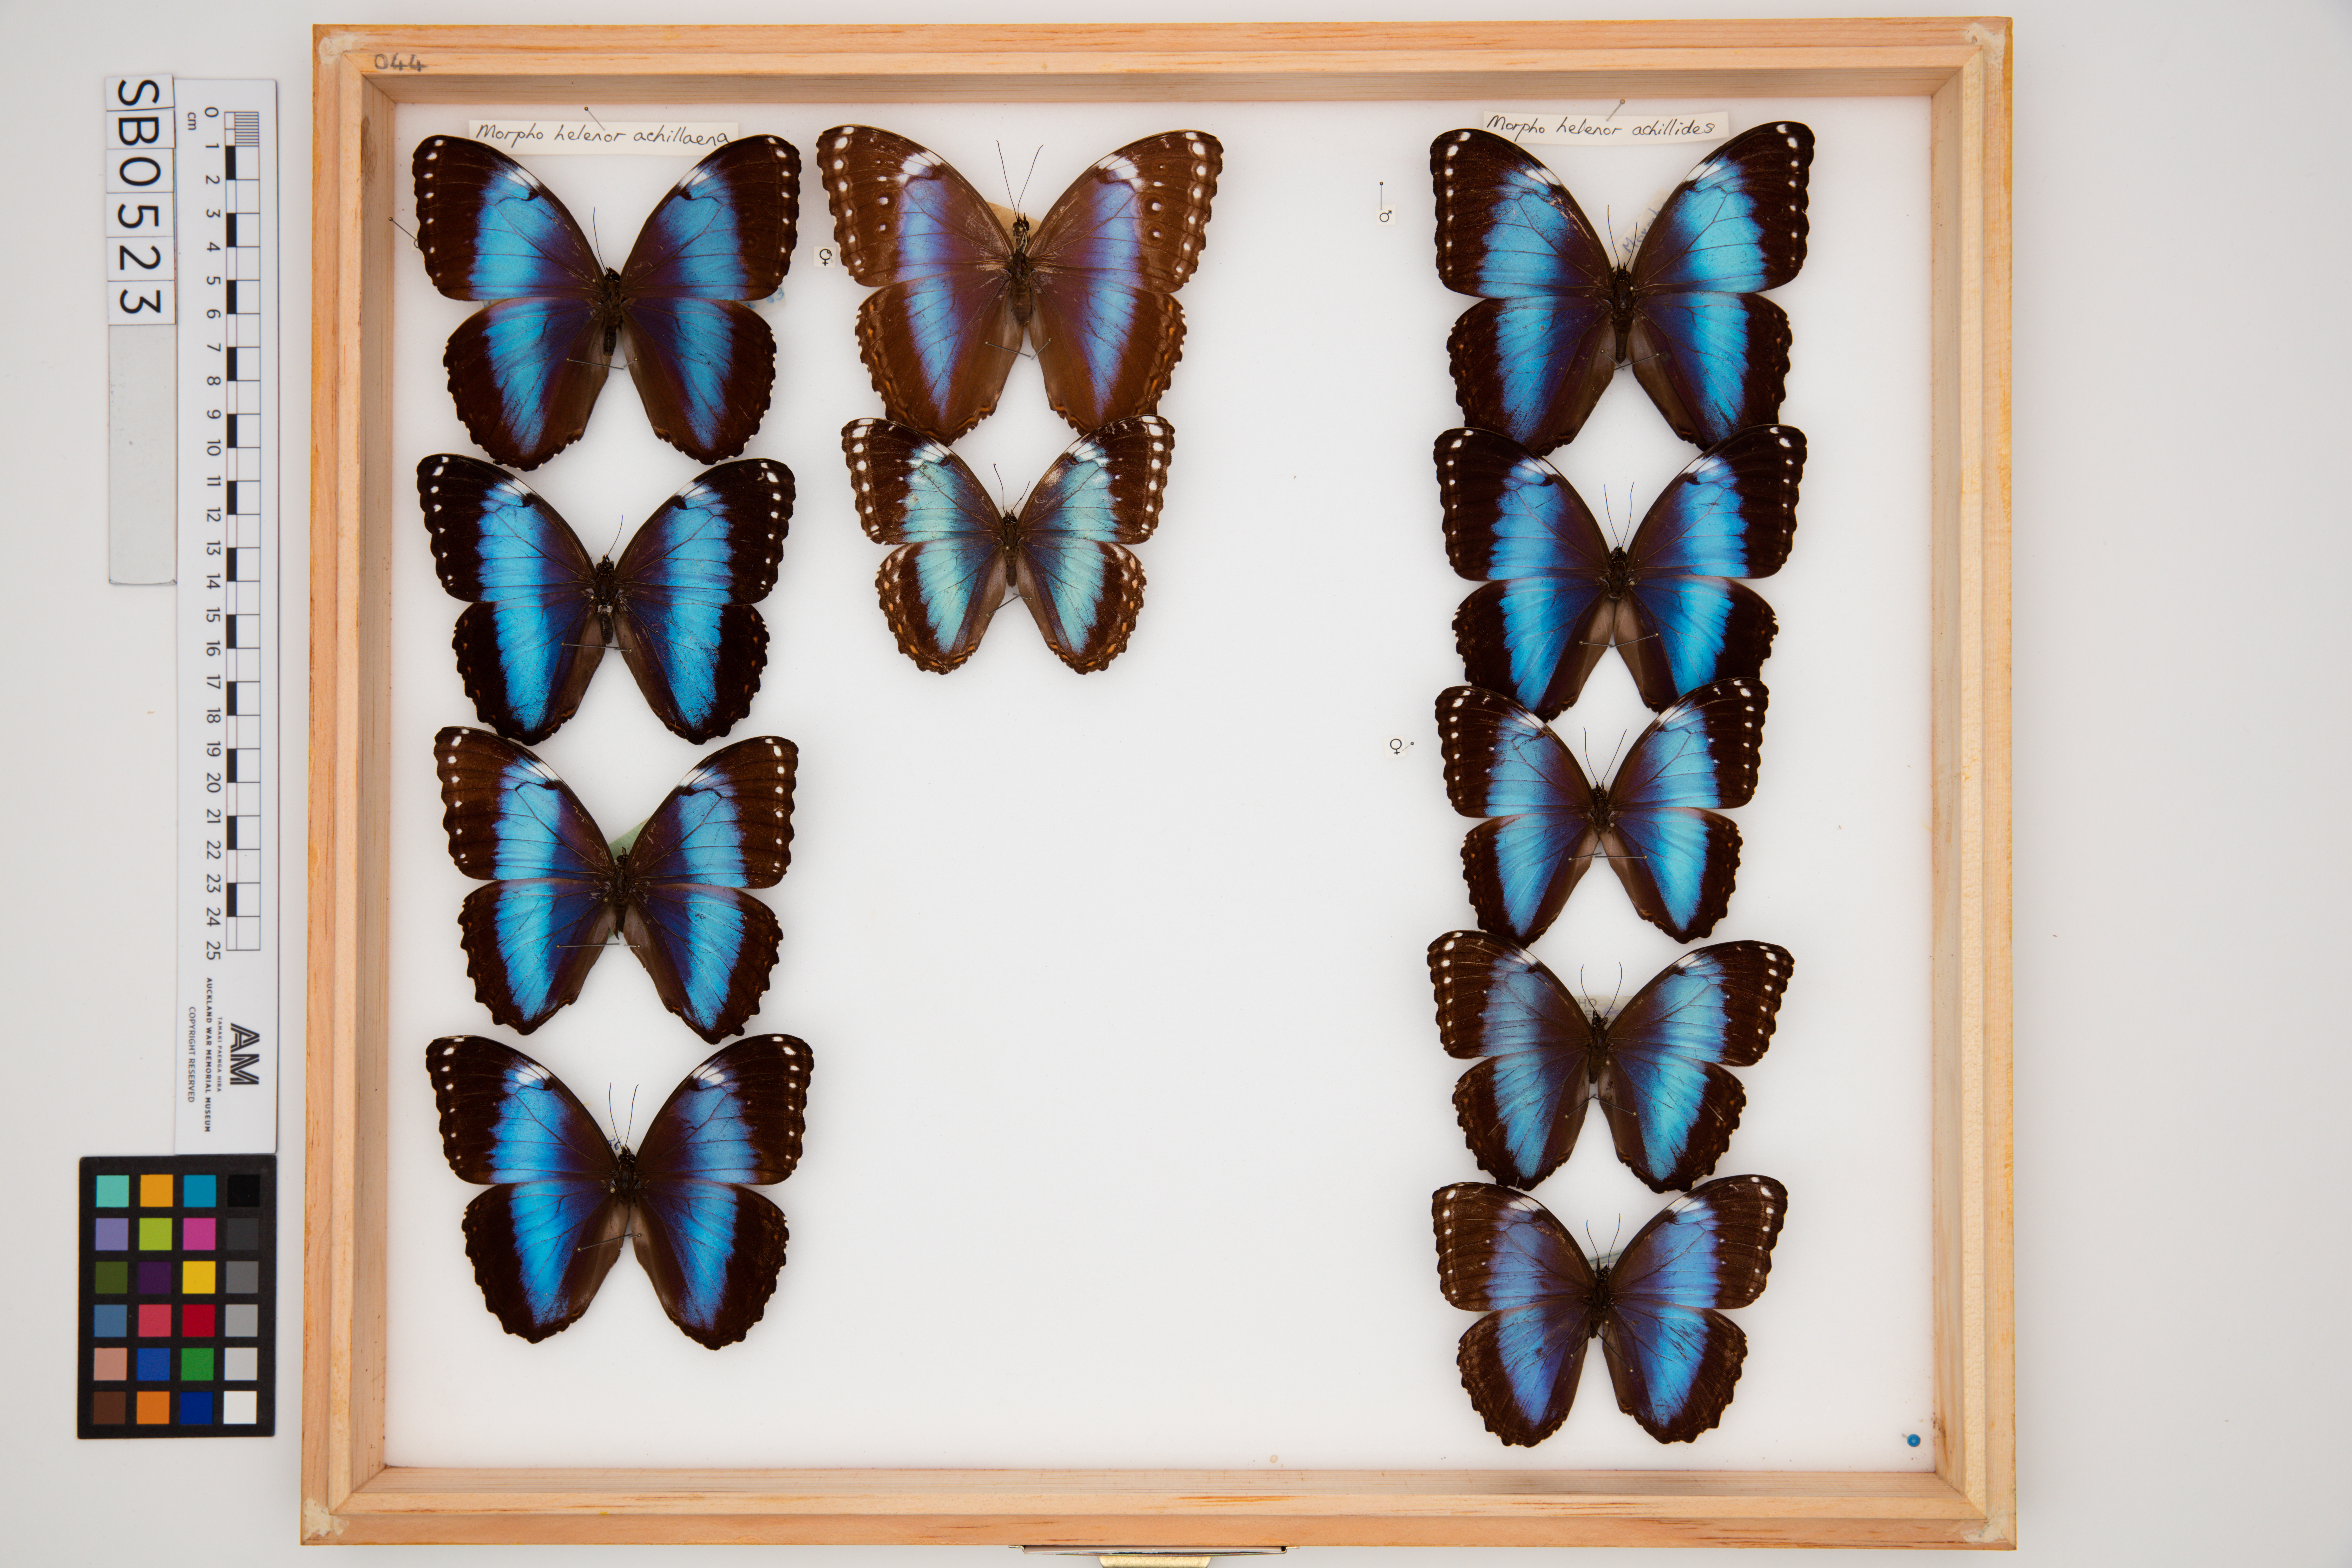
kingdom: Animalia
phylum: Arthropoda
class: Insecta
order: Lepidoptera
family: Nymphalidae
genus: Morpho
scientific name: Morpho helenor
